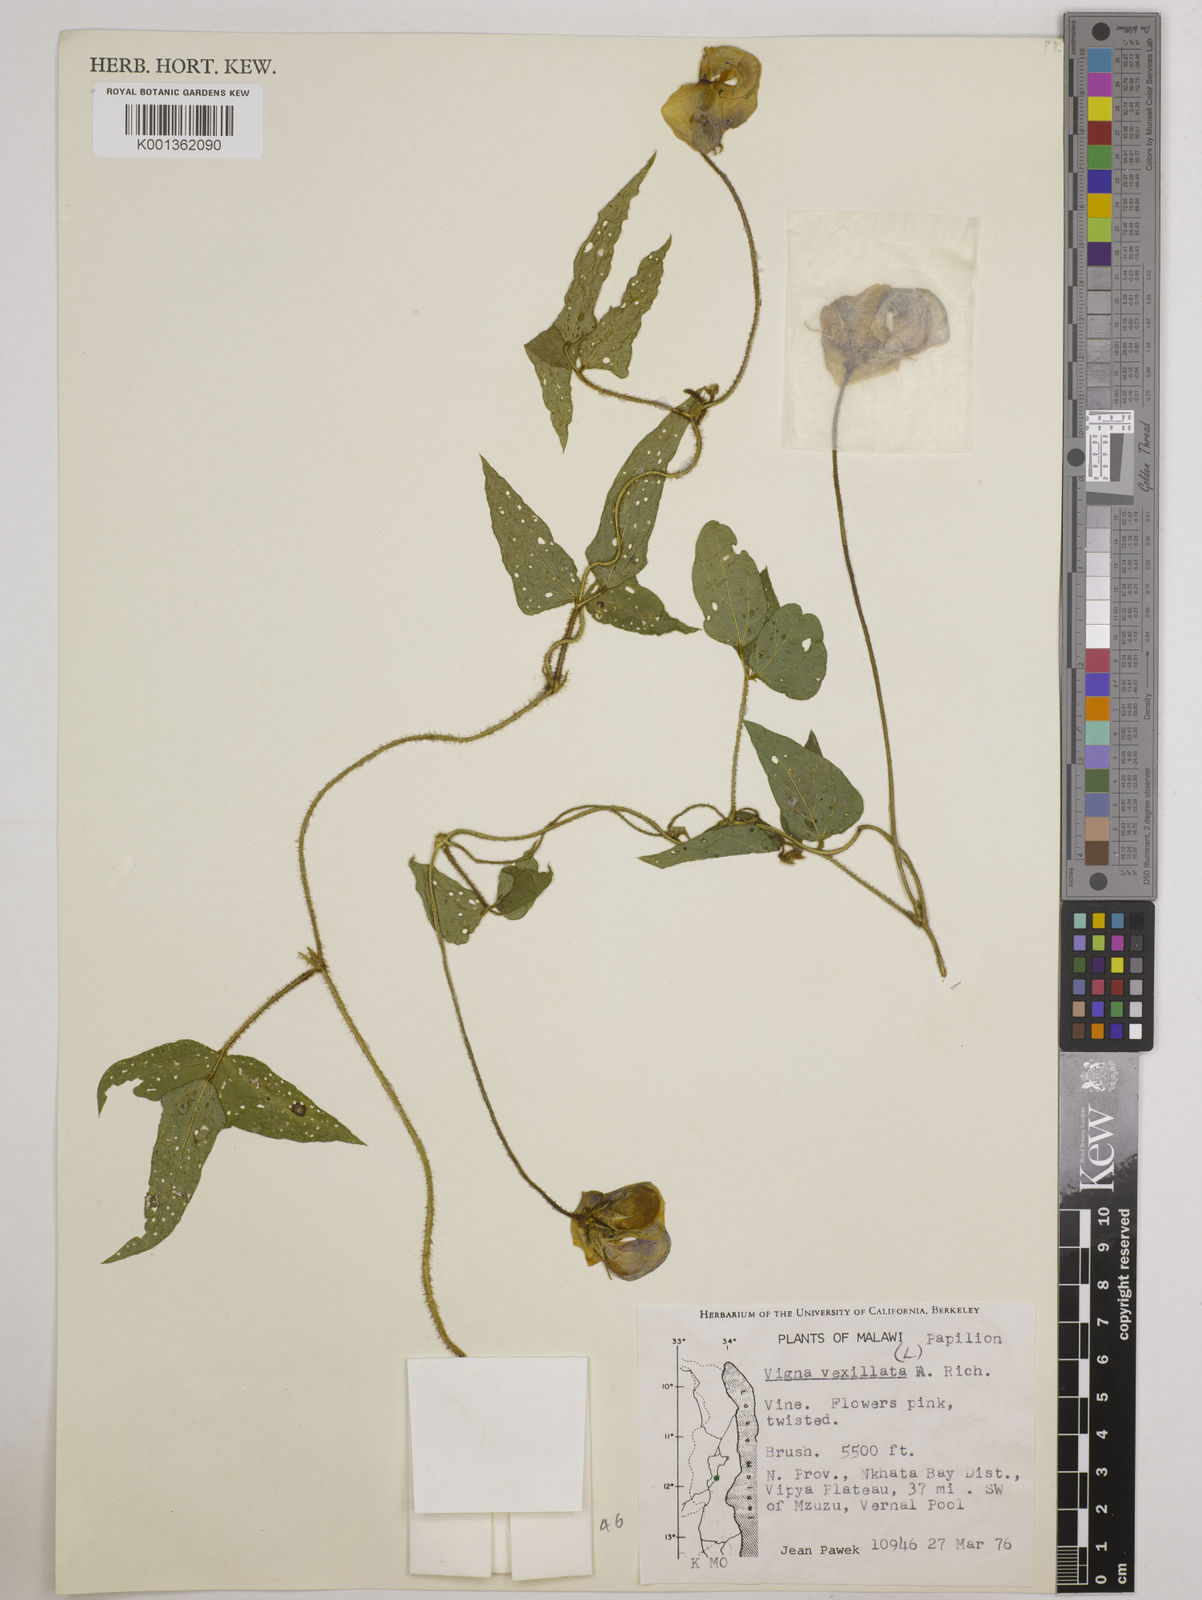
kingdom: Plantae
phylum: Tracheophyta
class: Magnoliopsida
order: Fabales
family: Fabaceae
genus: Vigna
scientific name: Vigna vexillata
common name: Zombi pea
